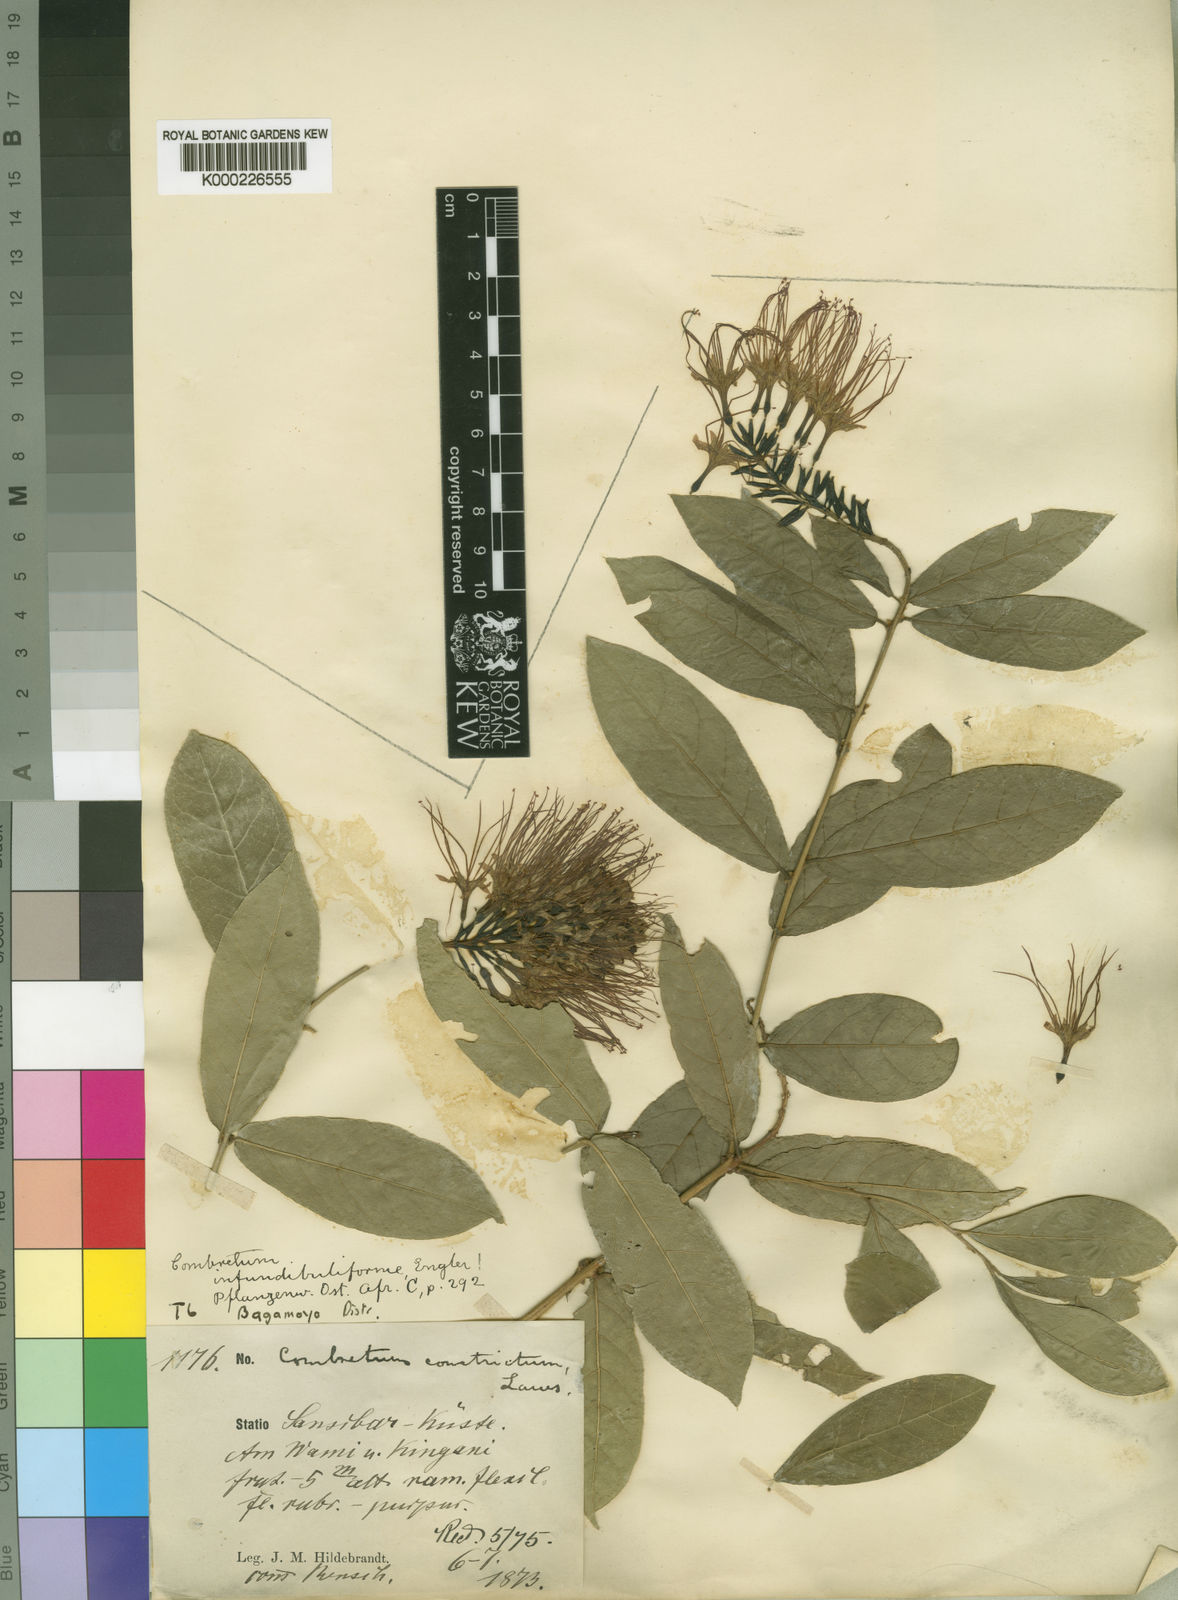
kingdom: Plantae
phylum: Tracheophyta
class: Magnoliopsida
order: Myrtales
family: Combretaceae
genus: Combretum
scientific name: Combretum constrictum
